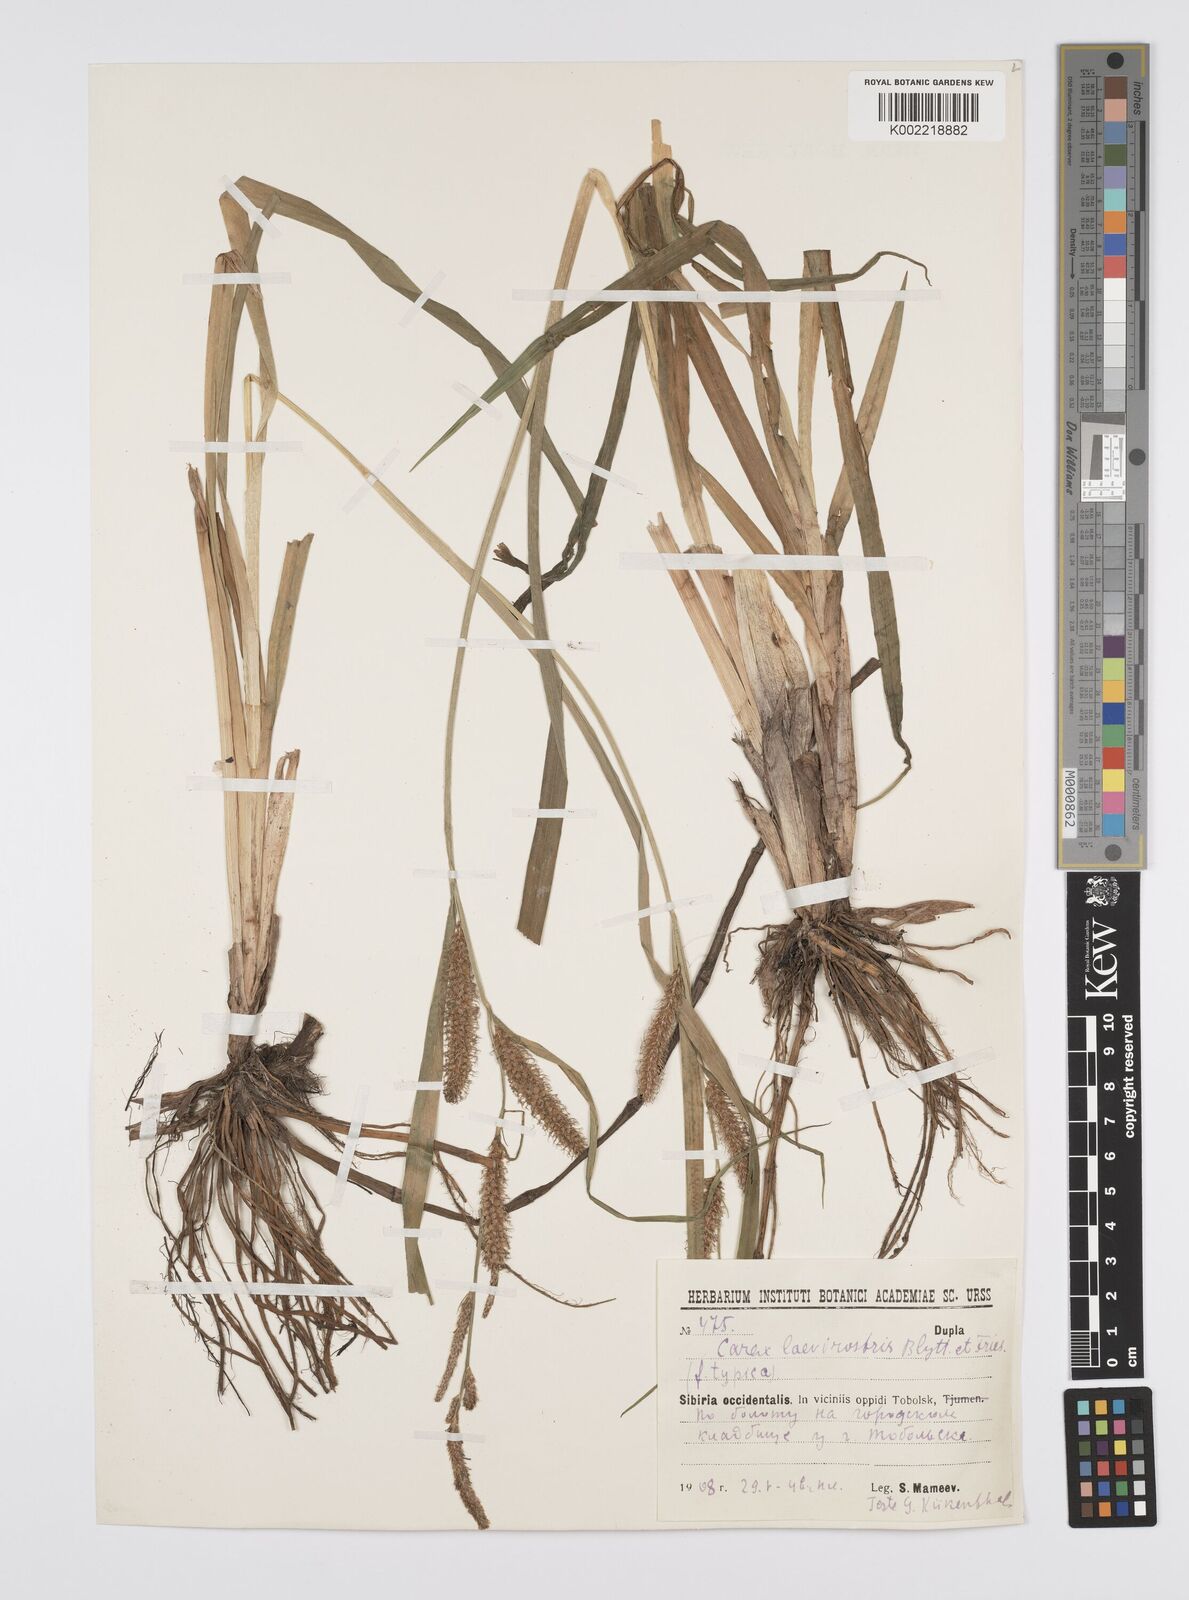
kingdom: Plantae
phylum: Tracheophyta
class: Liliopsida
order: Poales
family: Cyperaceae
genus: Carex
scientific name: Carex utriculata
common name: Beaked sedge
